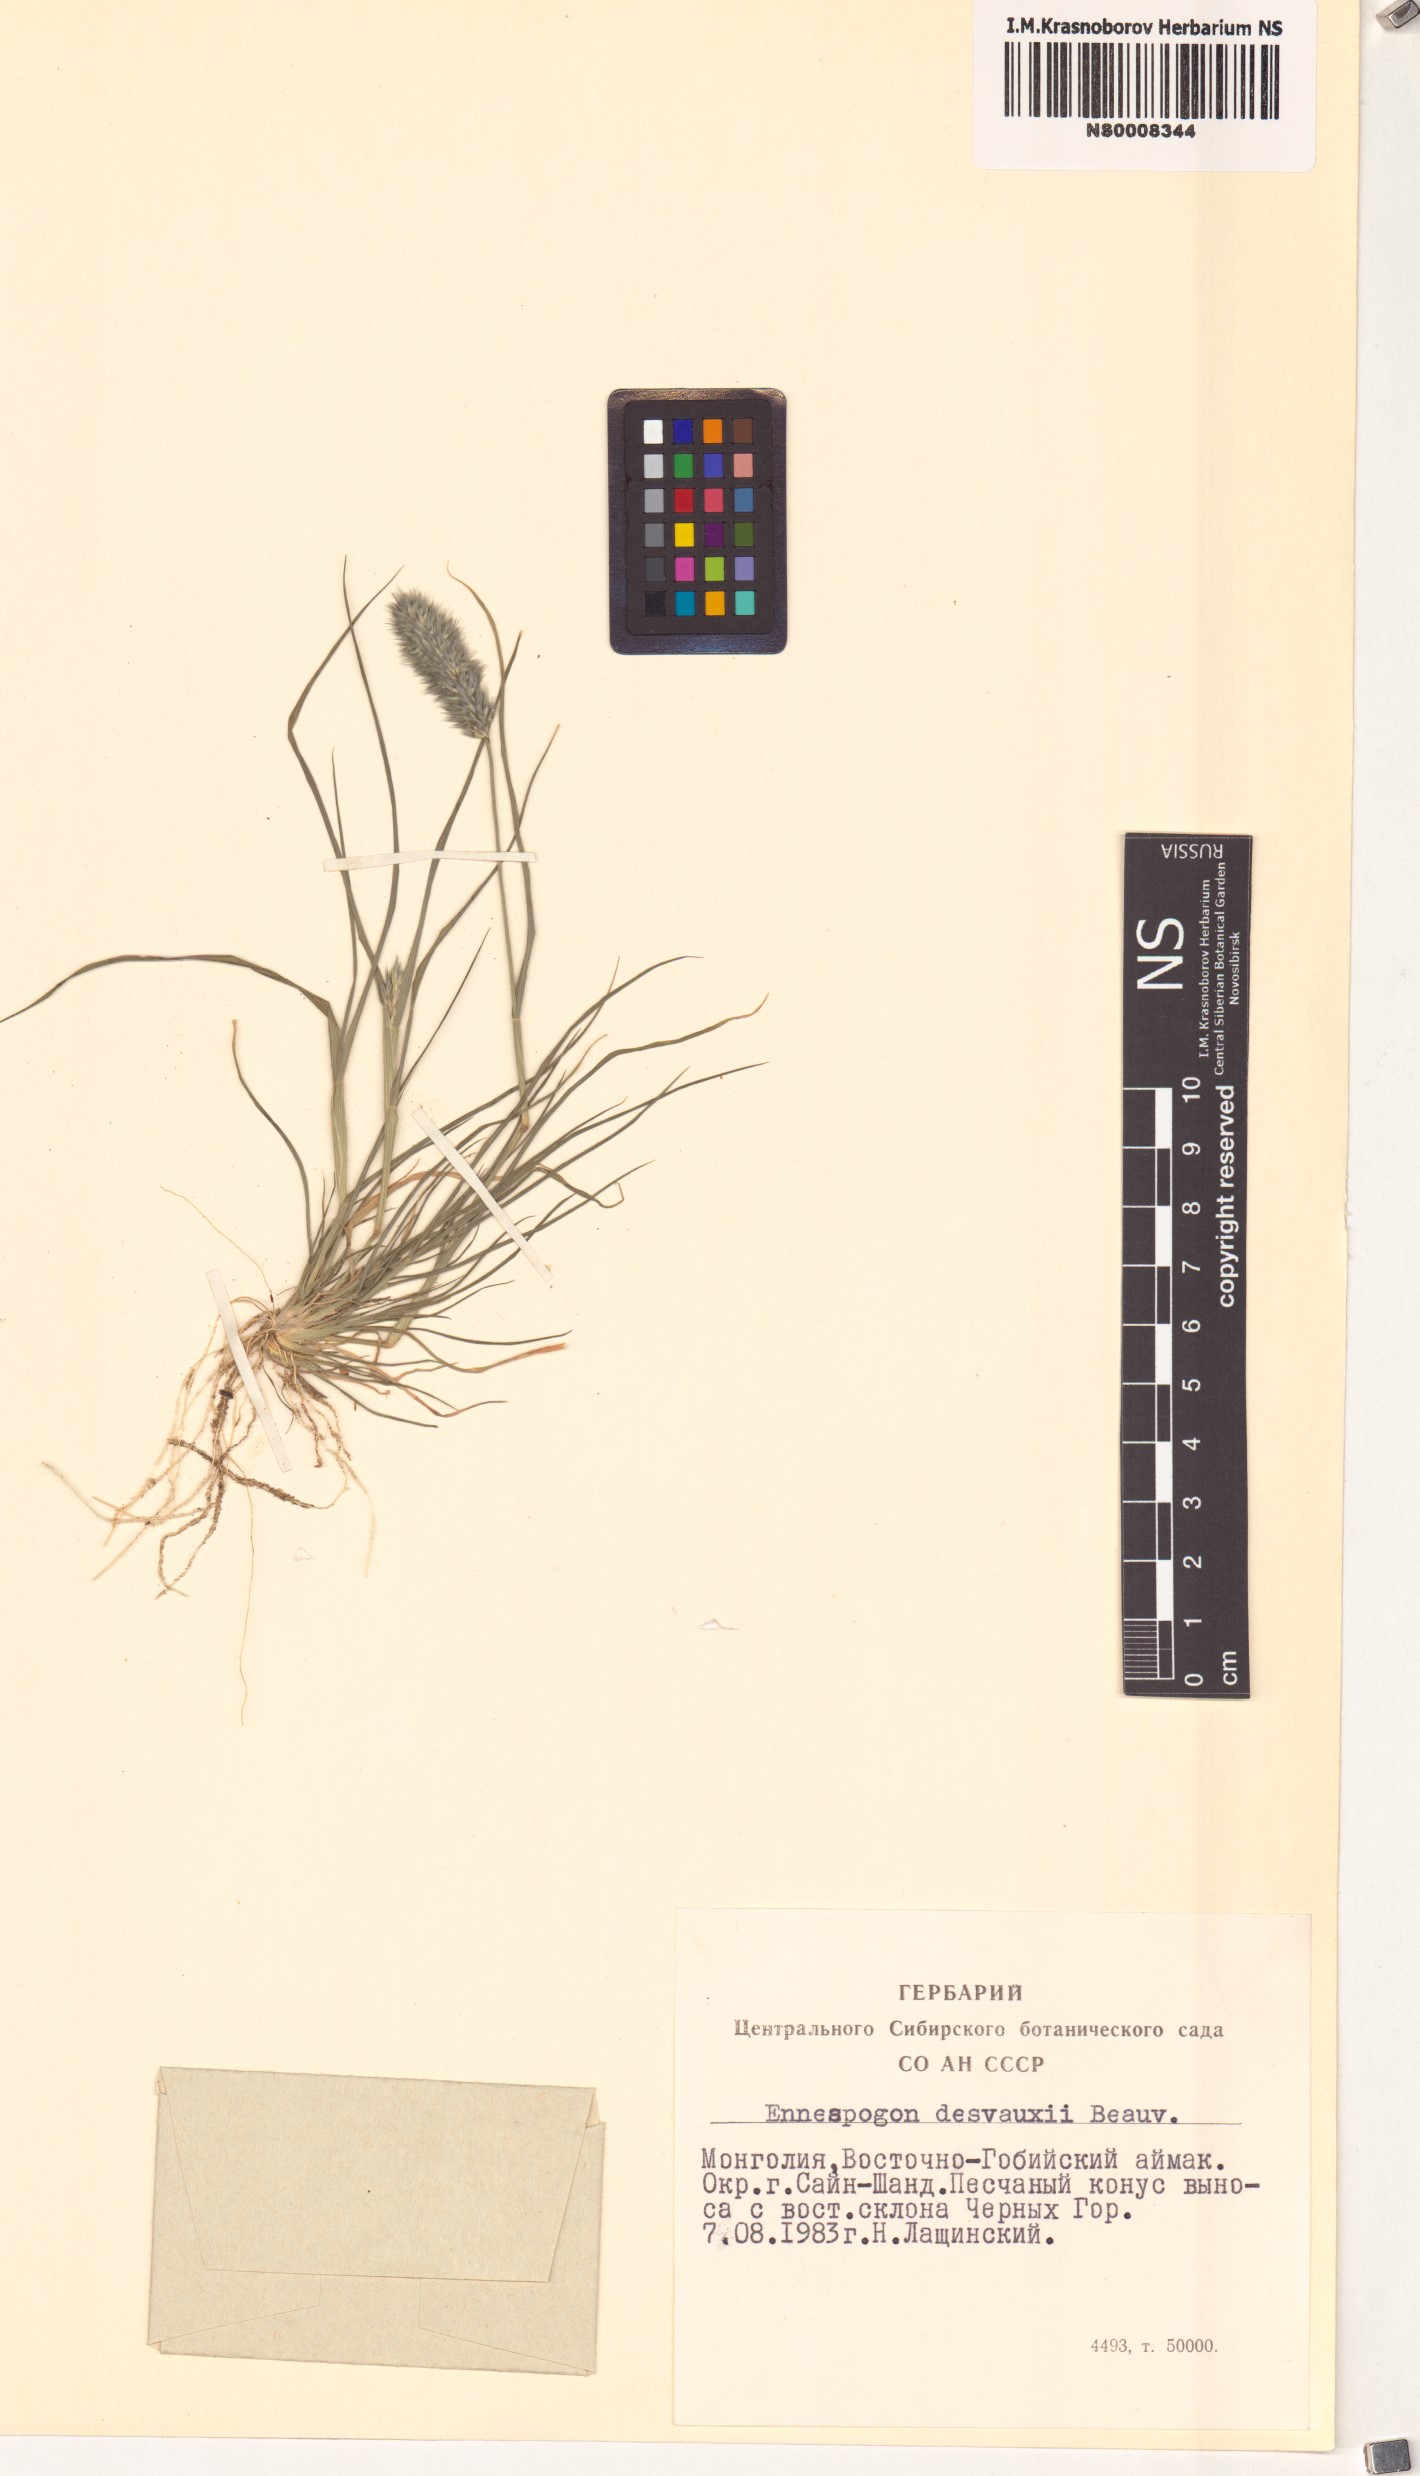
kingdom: Plantae
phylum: Tracheophyta
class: Liliopsida
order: Poales
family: Poaceae
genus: Enneapogon
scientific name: Enneapogon desvauxii
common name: Feather pappus grass
